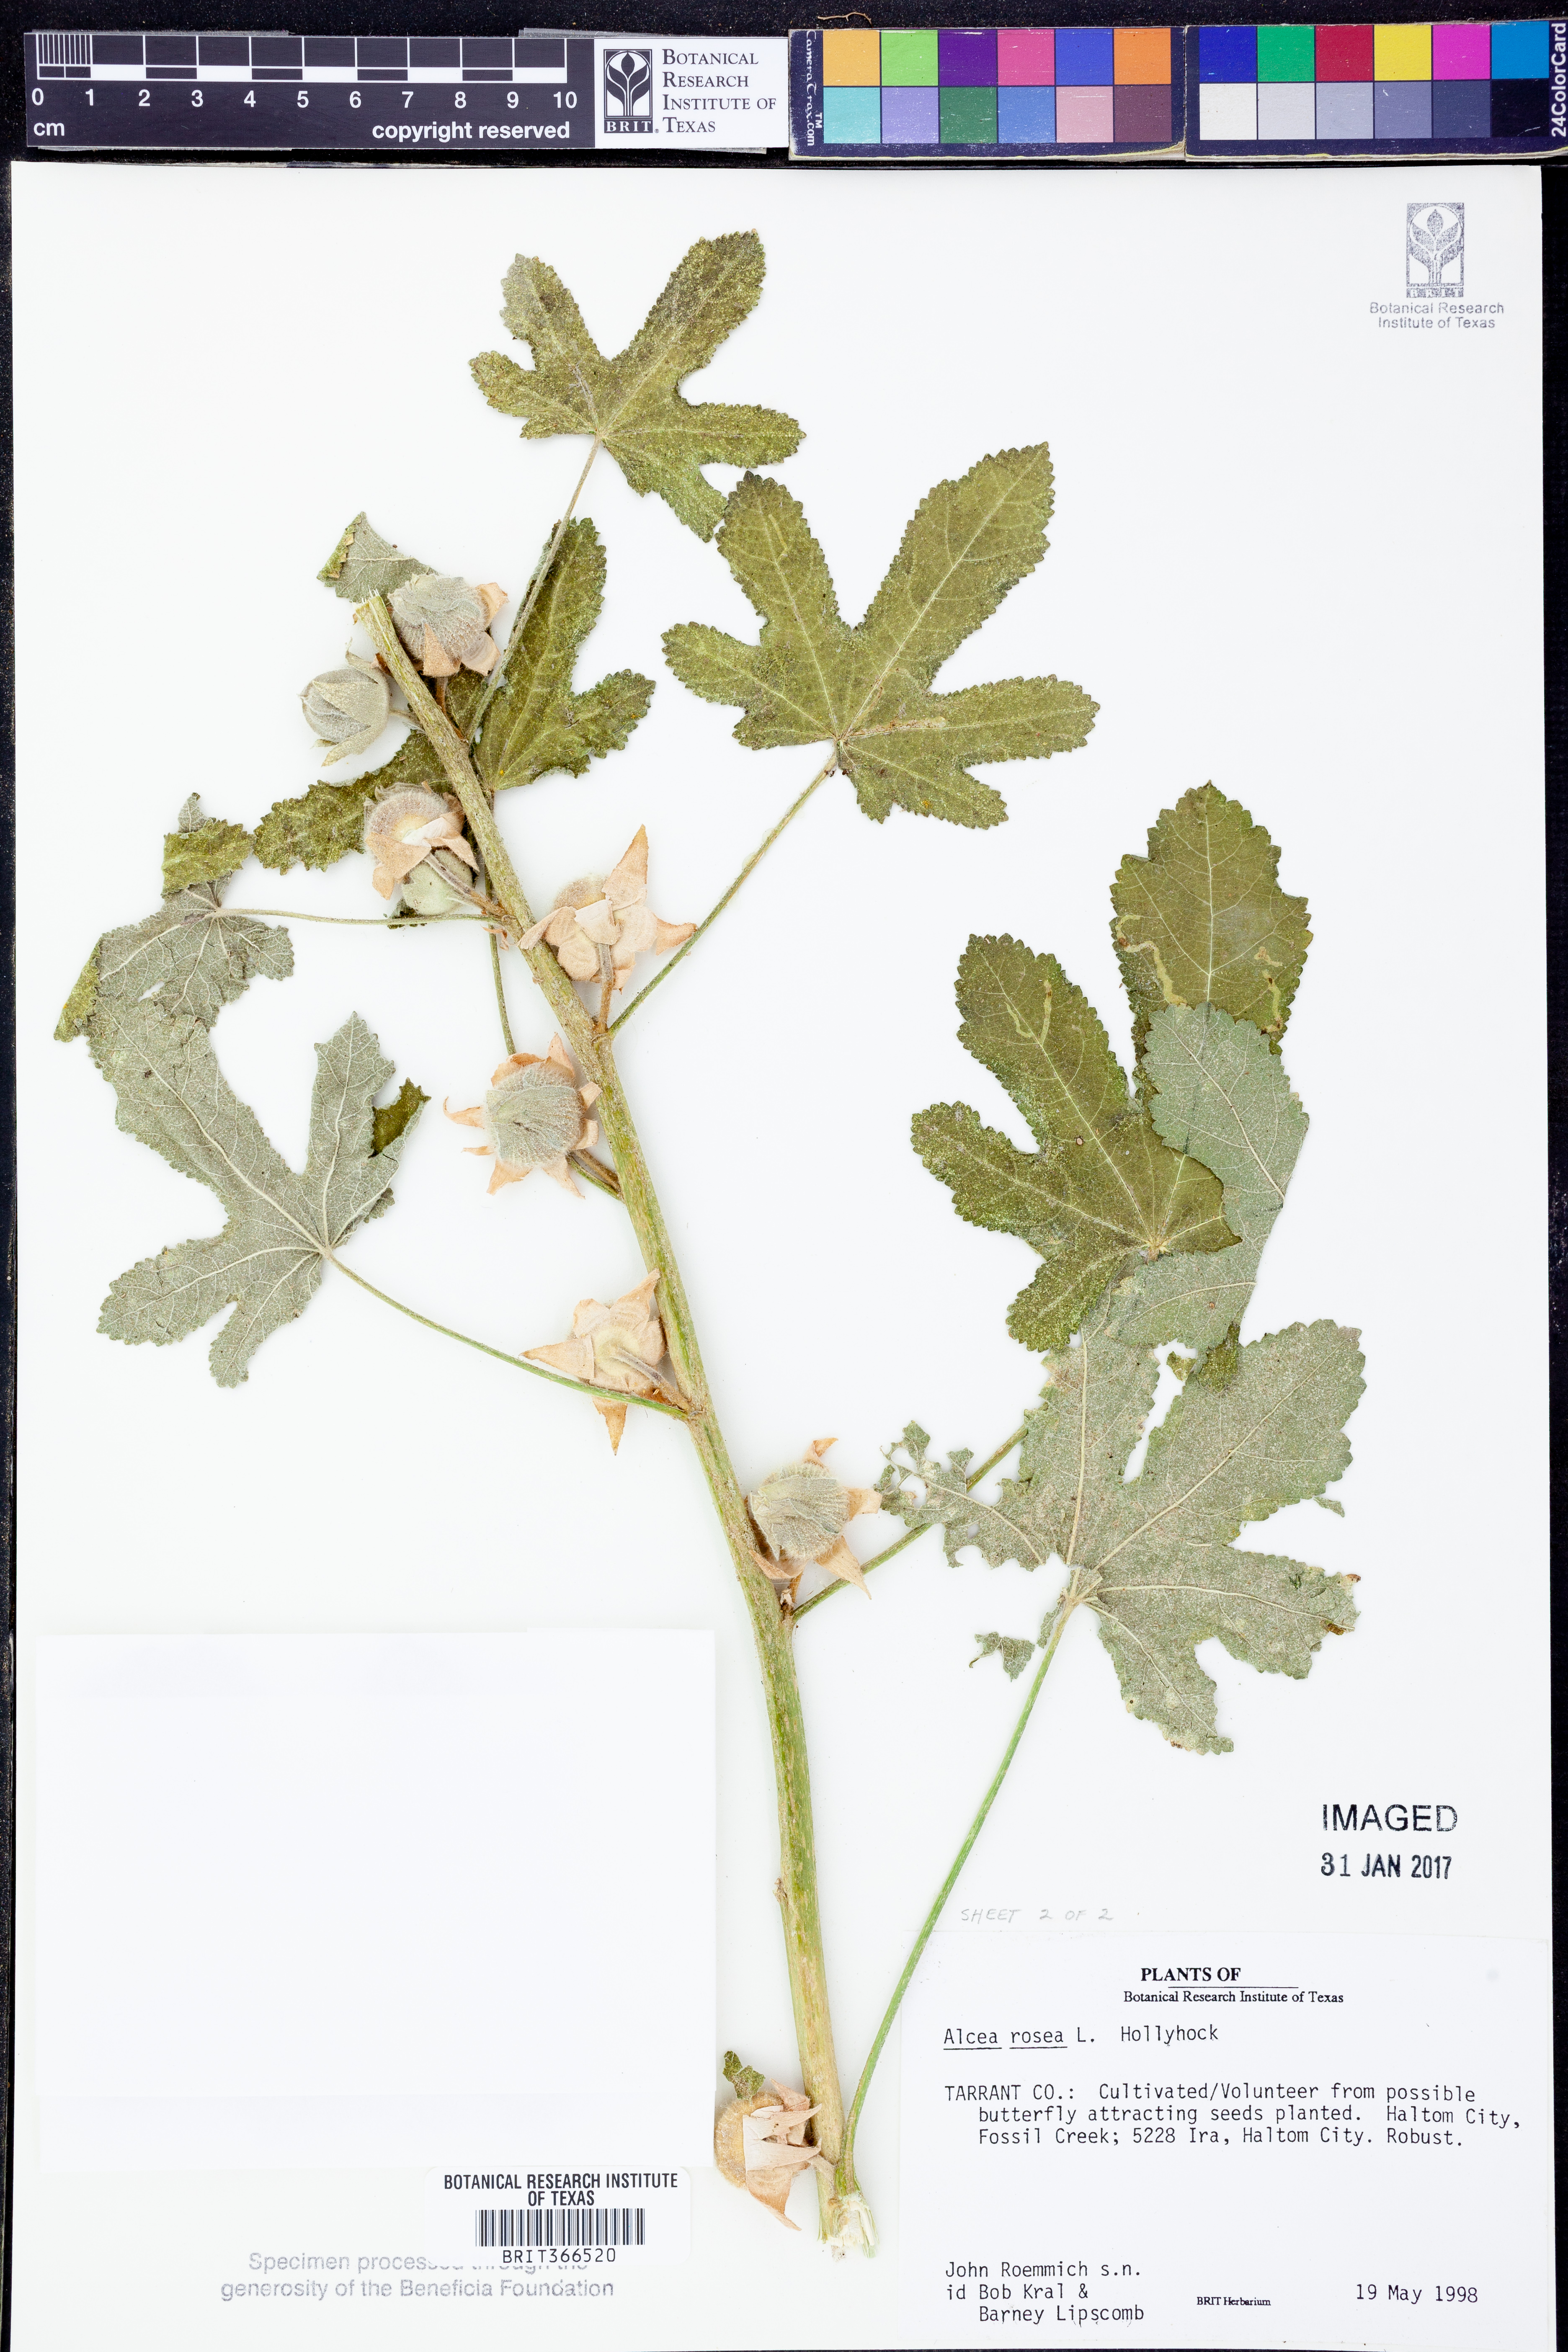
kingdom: Plantae
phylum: Tracheophyta
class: Magnoliopsida
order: Malvales
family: Malvaceae
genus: Alcea
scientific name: Alcea rosea
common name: Hollyhock
